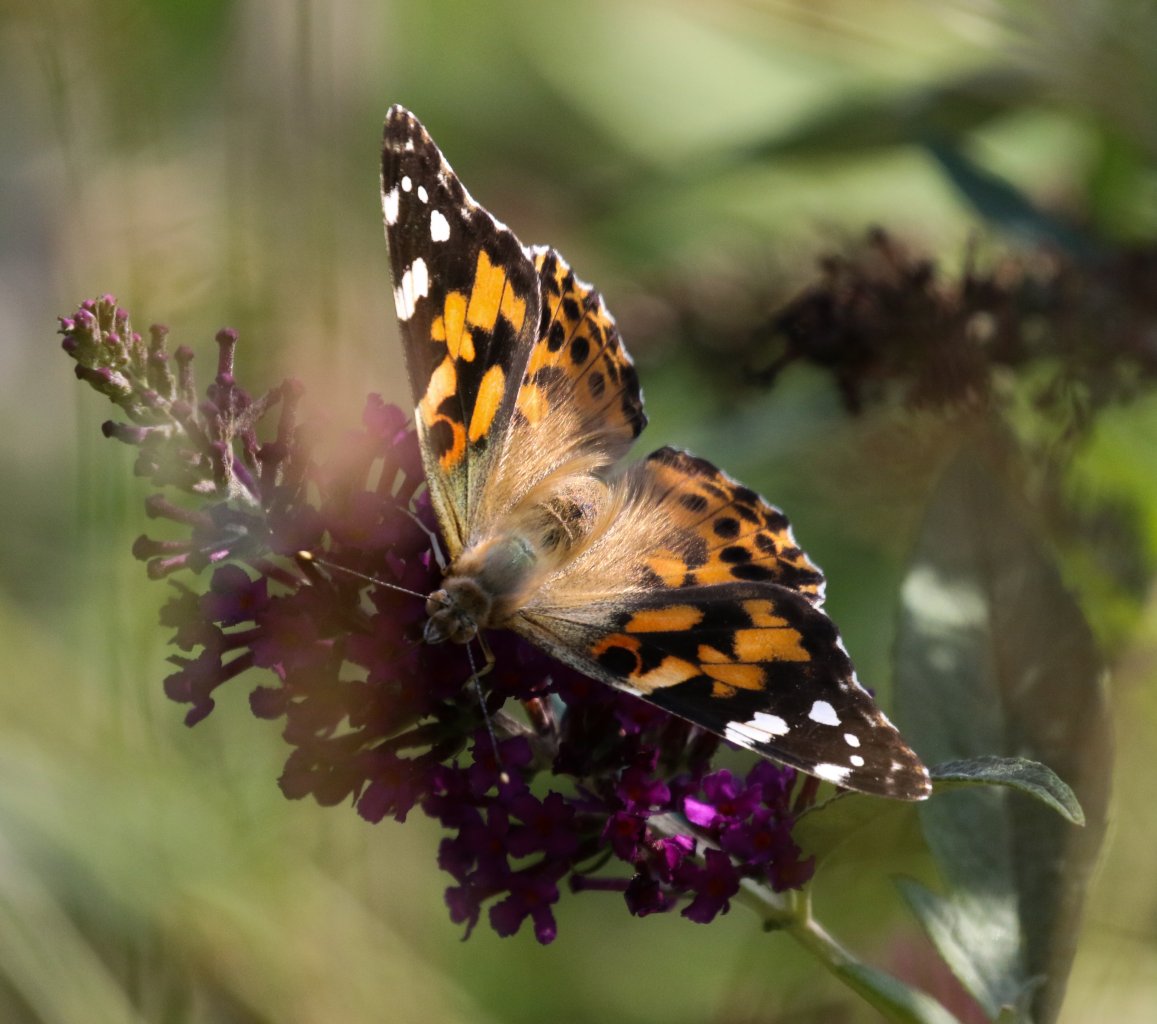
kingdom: Animalia
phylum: Arthropoda
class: Insecta
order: Lepidoptera
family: Nymphalidae
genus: Vanessa
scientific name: Vanessa cardui
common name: Painted Lady
